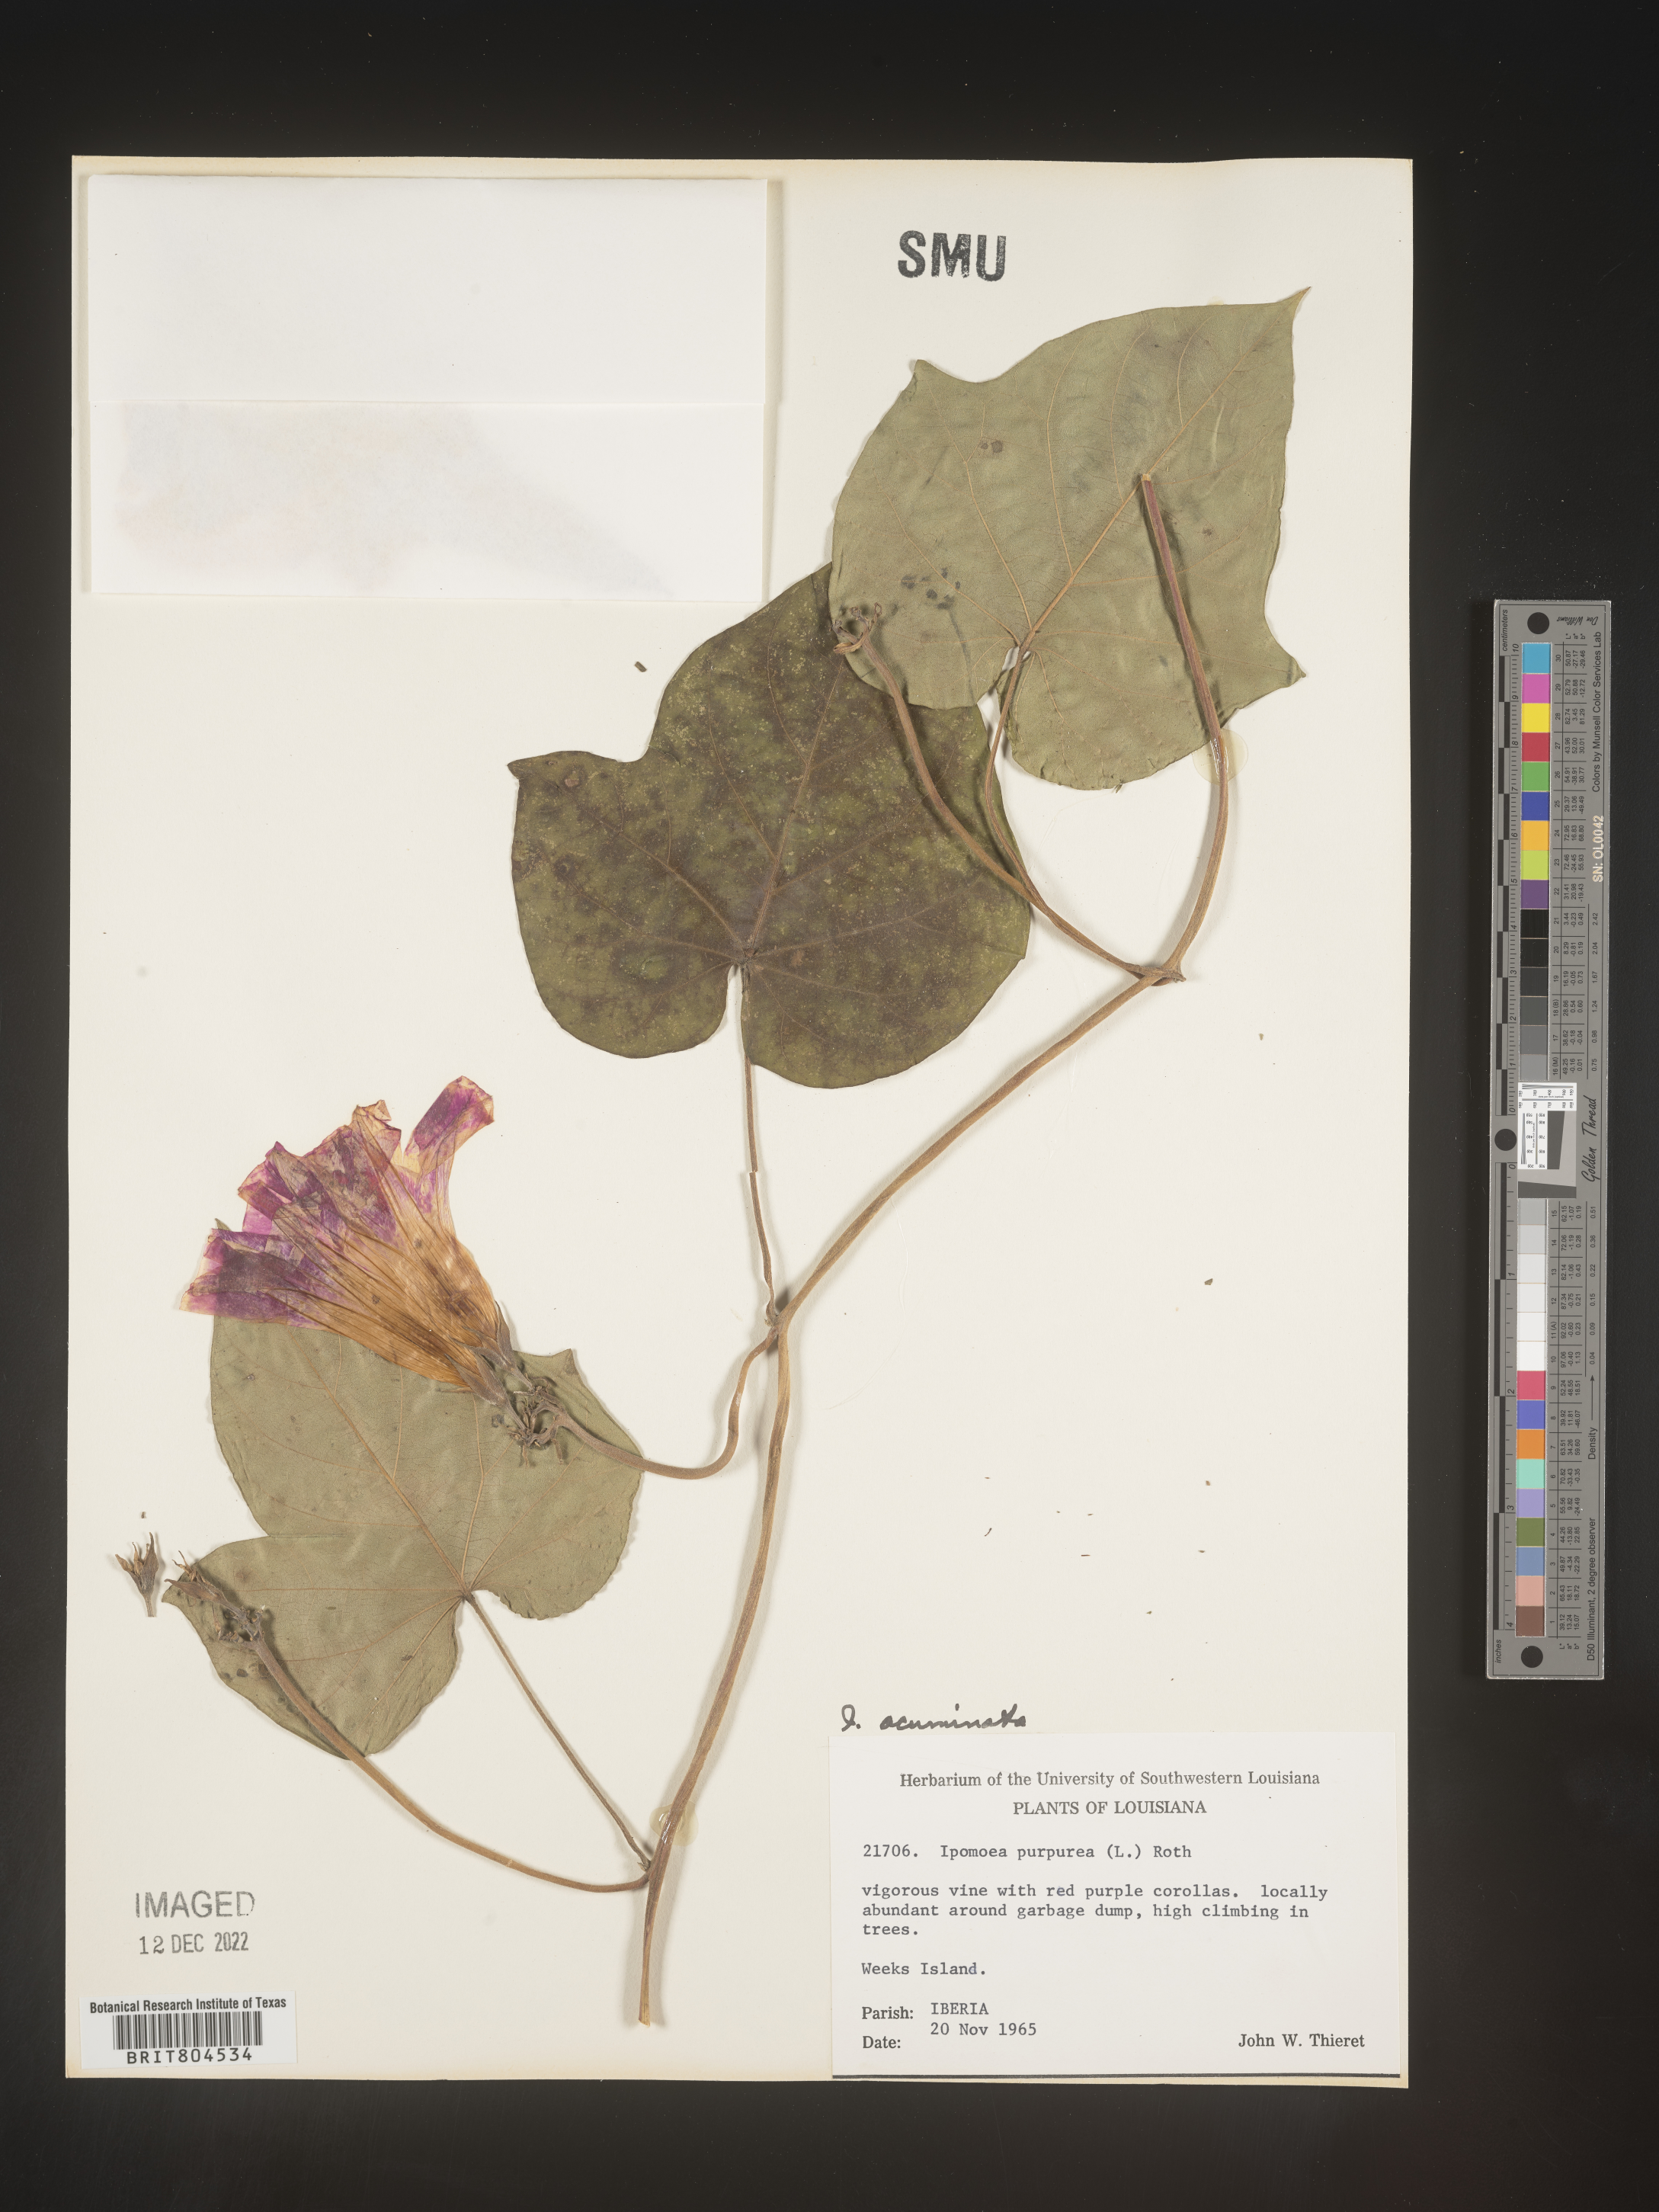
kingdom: Plantae
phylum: Tracheophyta
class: Magnoliopsida
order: Solanales
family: Convolvulaceae
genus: Ipomoea
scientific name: Ipomoea coccinea
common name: Red morning-glory
